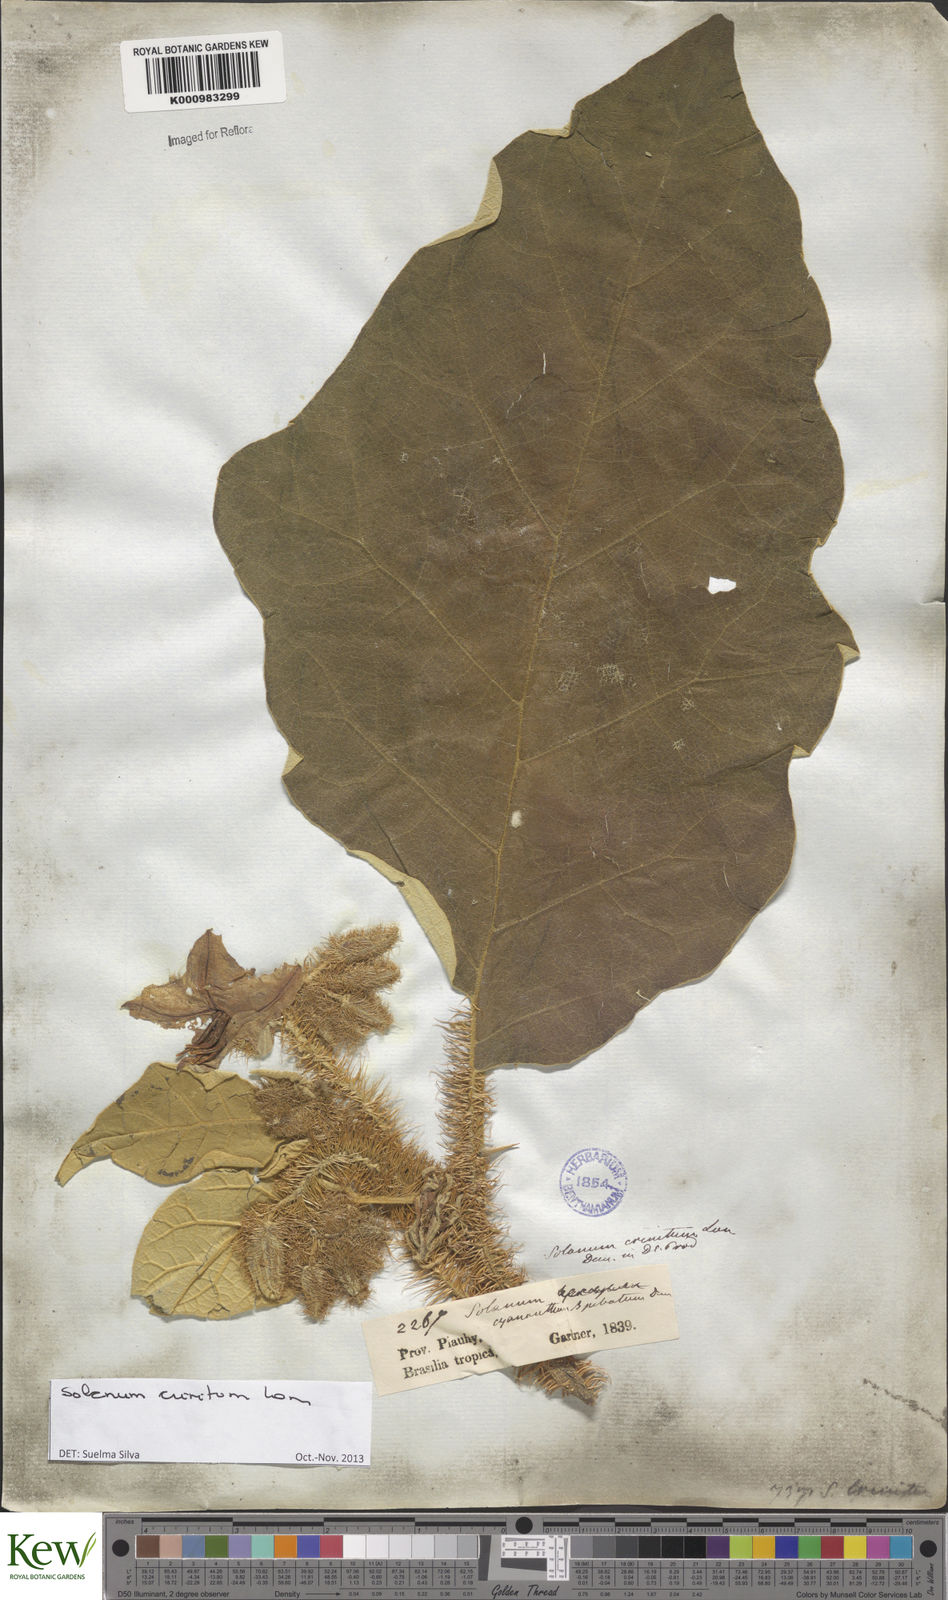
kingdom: Plantae
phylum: Tracheophyta
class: Magnoliopsida
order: Solanales
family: Solanaceae
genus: Solanum
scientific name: Solanum crinitum
